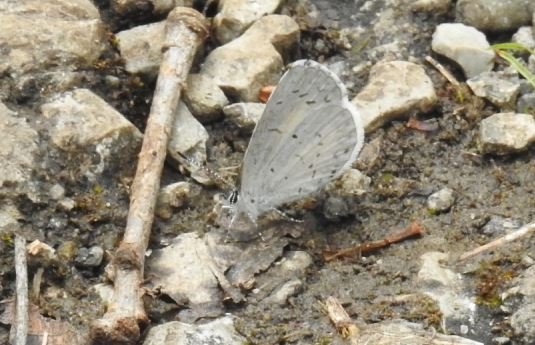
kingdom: Animalia
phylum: Arthropoda
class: Insecta
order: Lepidoptera
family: Lycaenidae
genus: Celastrina
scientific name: Celastrina
